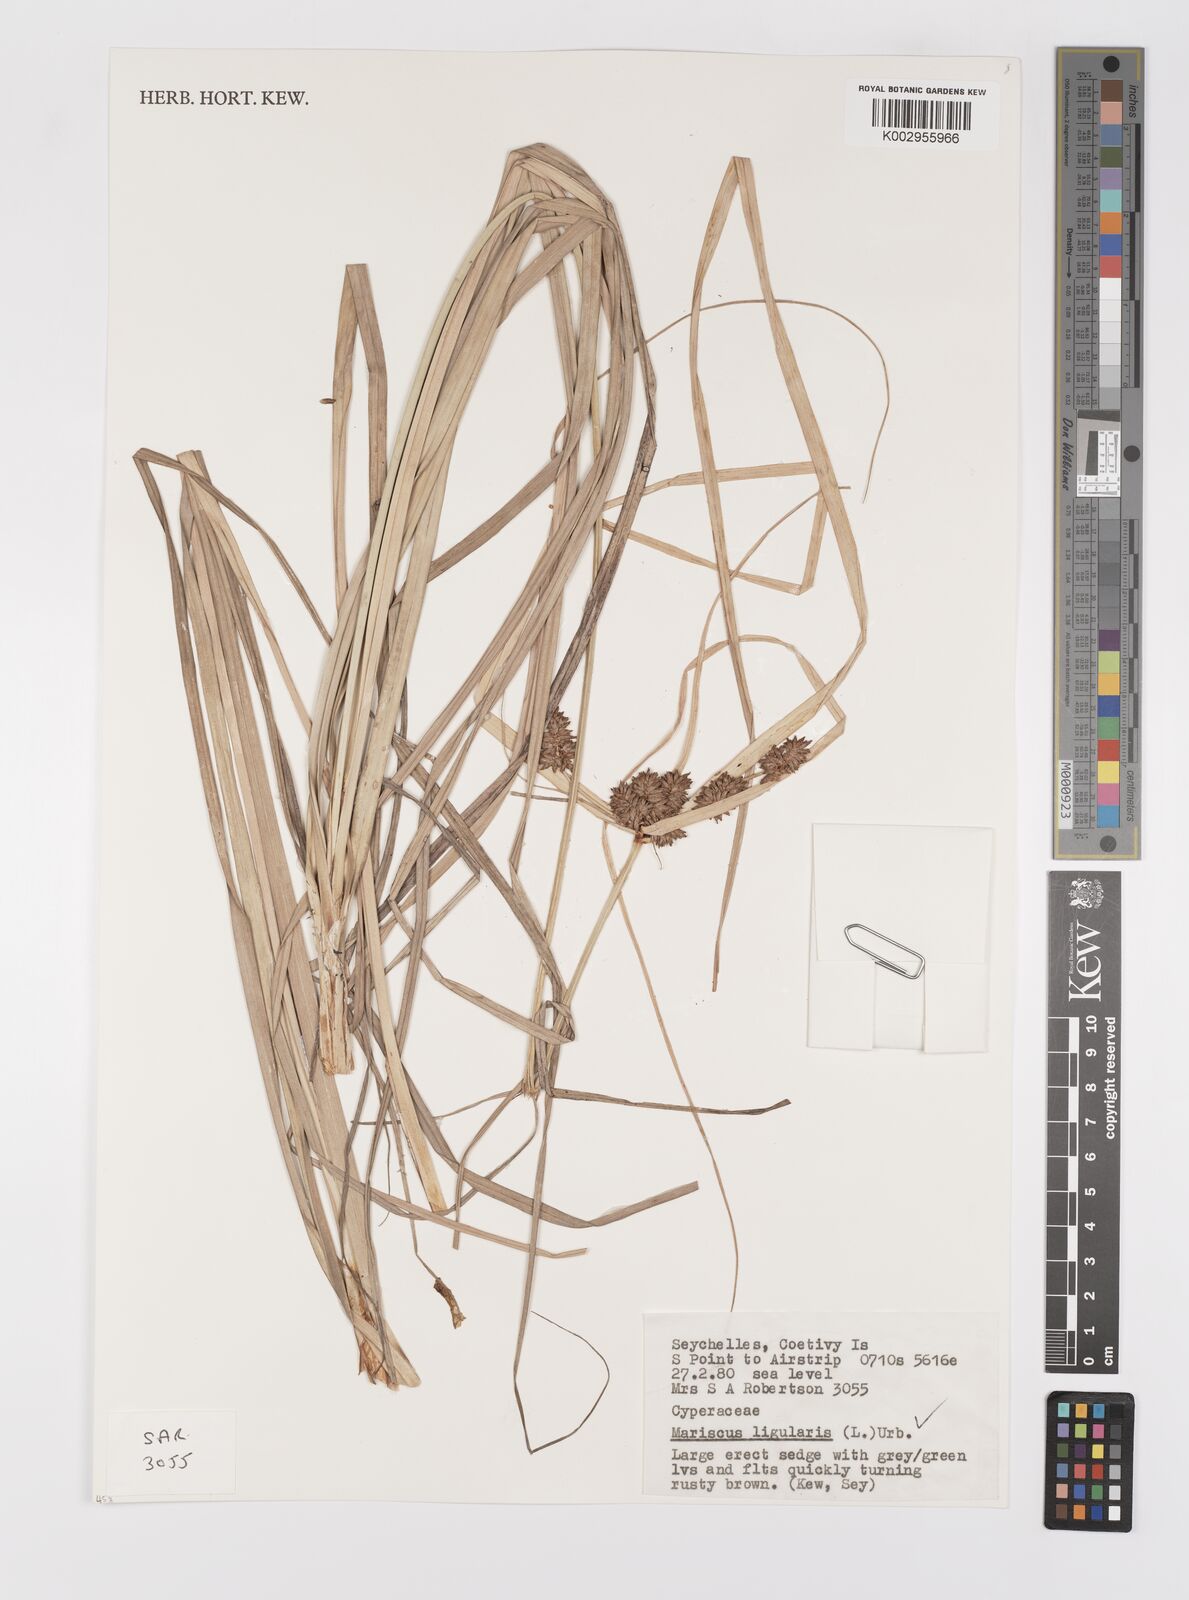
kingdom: Plantae
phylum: Tracheophyta
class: Liliopsida
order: Poales
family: Cyperaceae
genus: Cyperus
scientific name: Cyperus ligularis
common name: Swamp flat sedge
